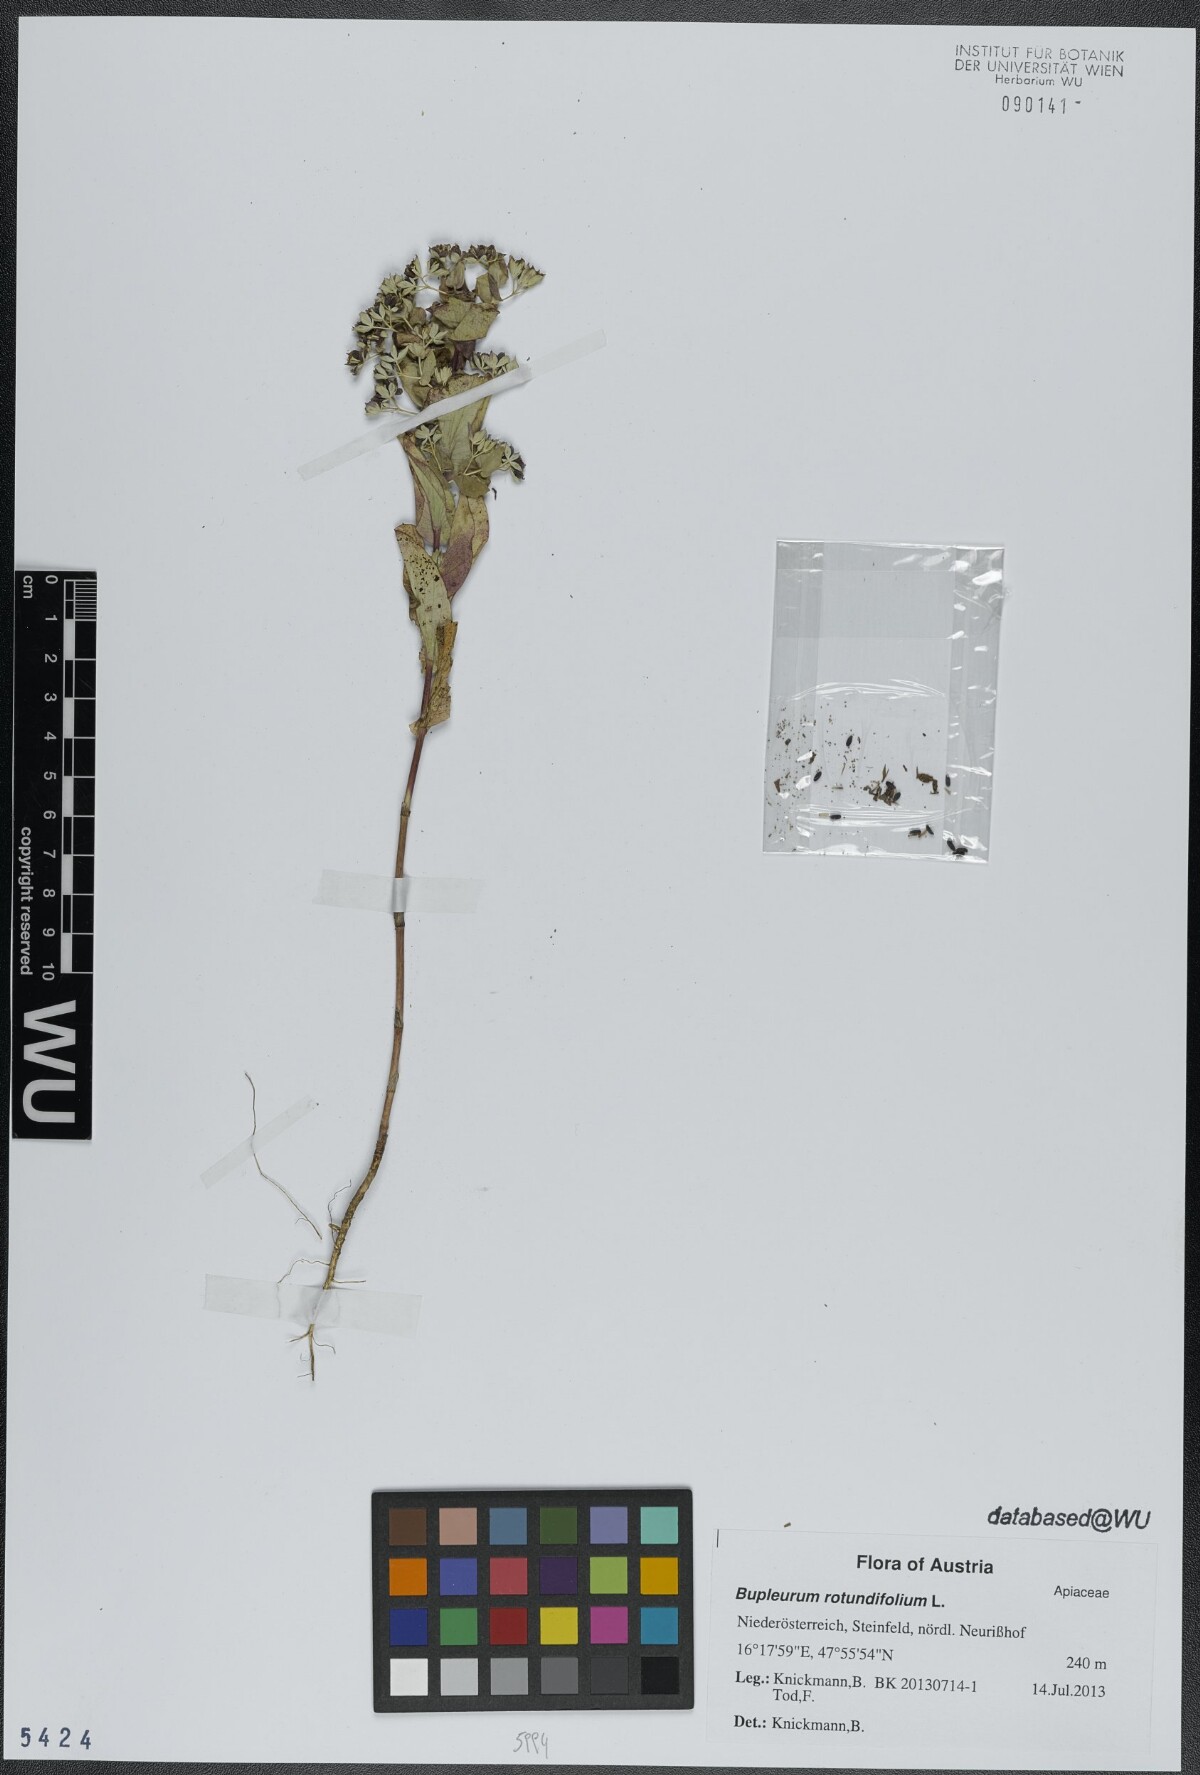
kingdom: Plantae
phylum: Tracheophyta
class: Magnoliopsida
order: Apiales
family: Apiaceae
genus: Bupleurum
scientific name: Bupleurum rotundifolium
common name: Thorow-wax
